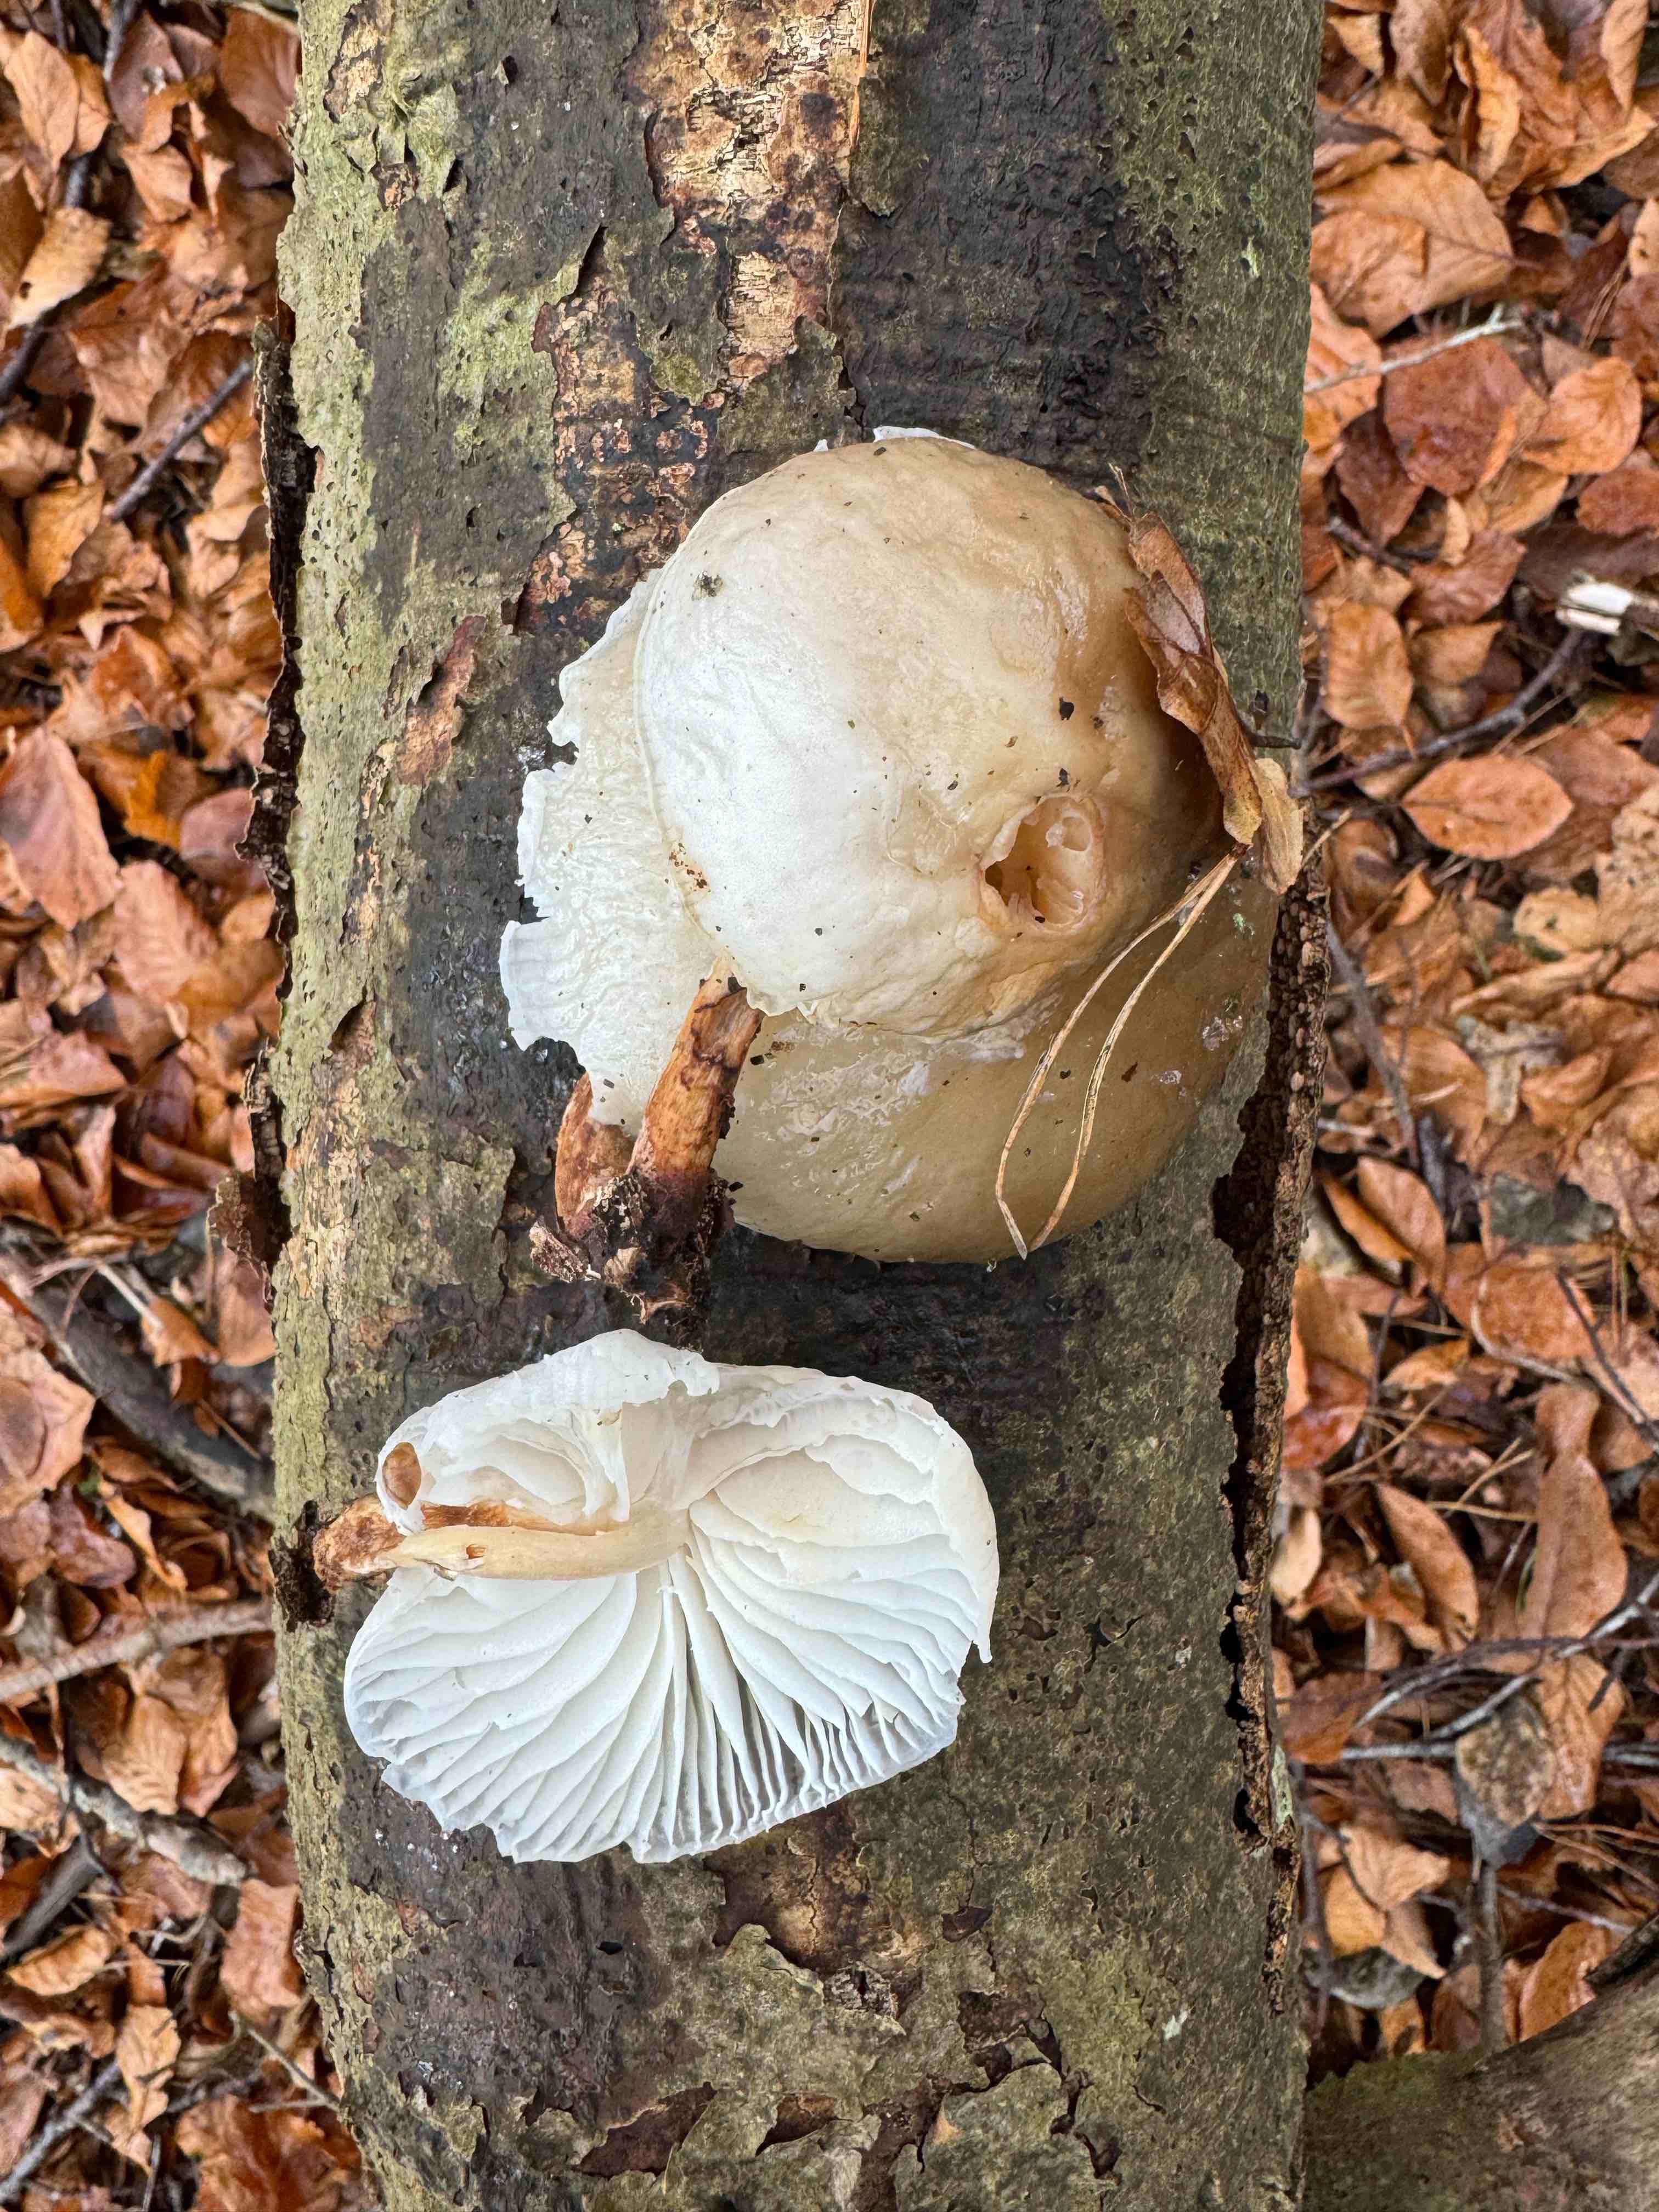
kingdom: Fungi
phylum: Basidiomycota
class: Agaricomycetes
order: Agaricales
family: Physalacriaceae
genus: Mucidula
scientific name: Mucidula mucida
